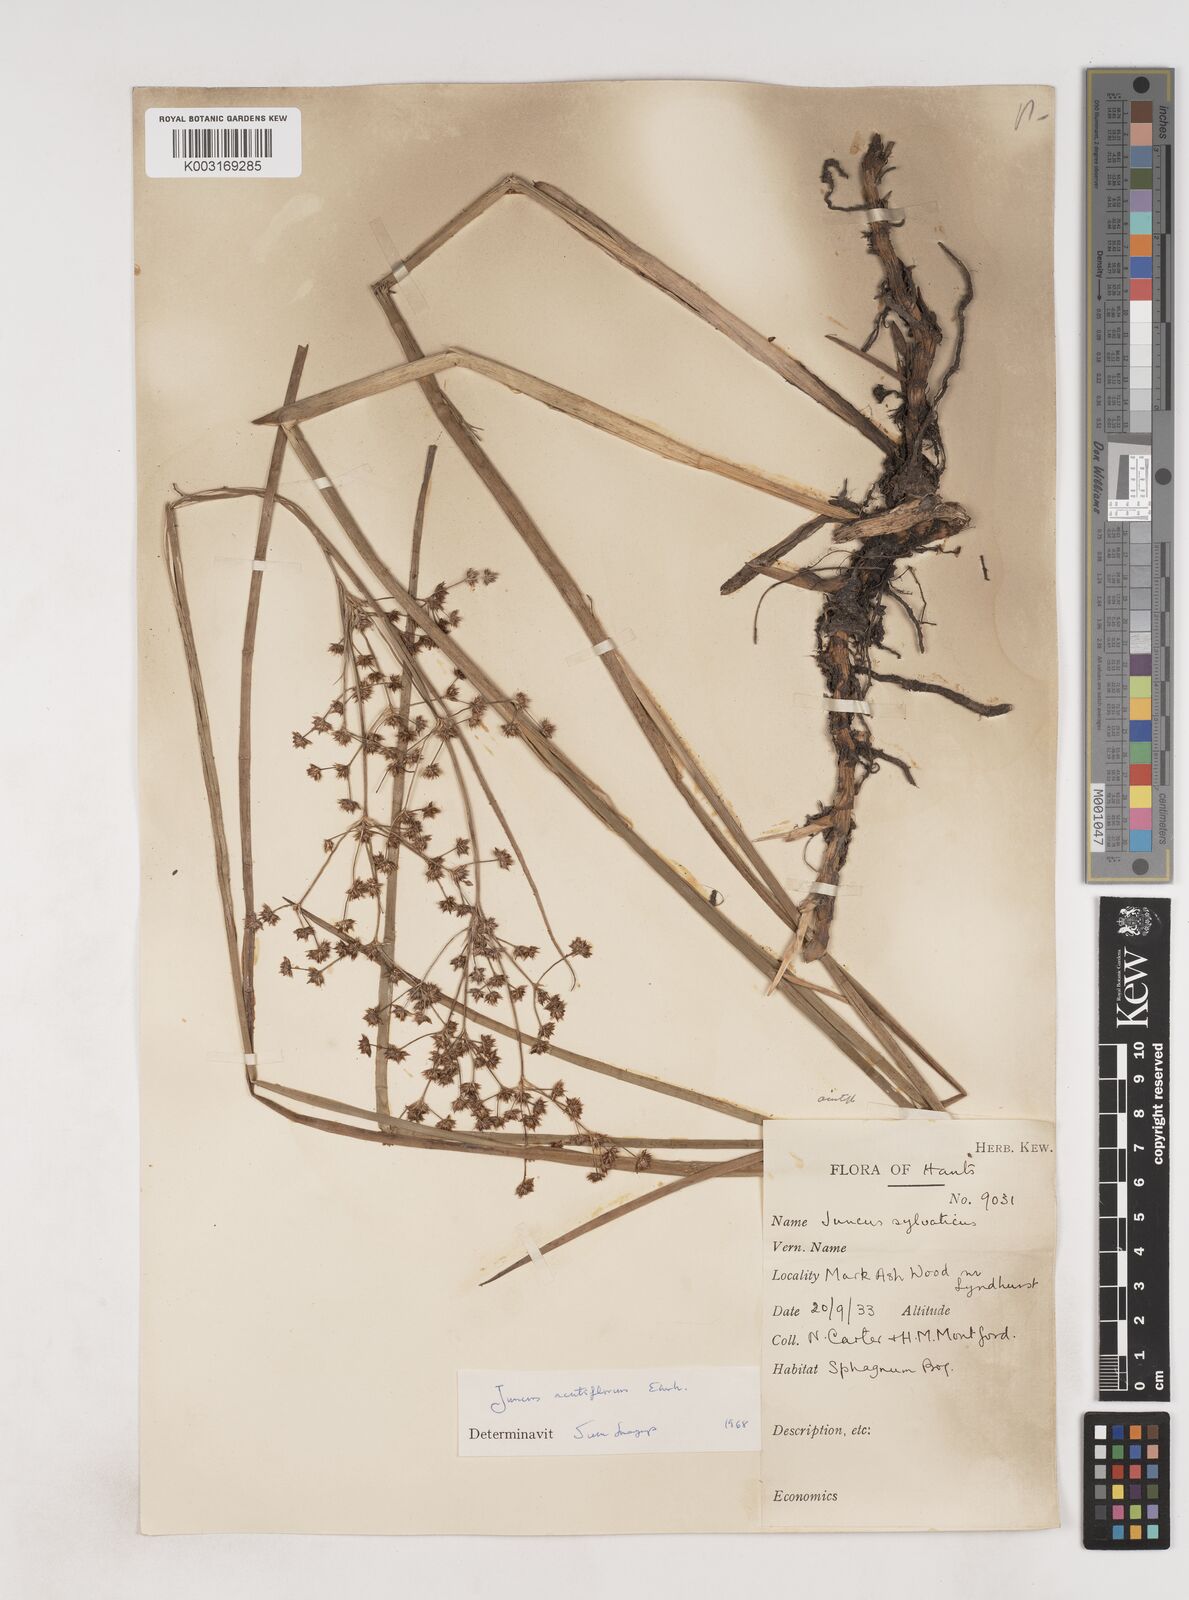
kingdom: Plantae
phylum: Tracheophyta
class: Liliopsida
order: Poales
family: Juncaceae
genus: Juncus
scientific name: Juncus acutiflorus
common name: Sharp-flowered rush
